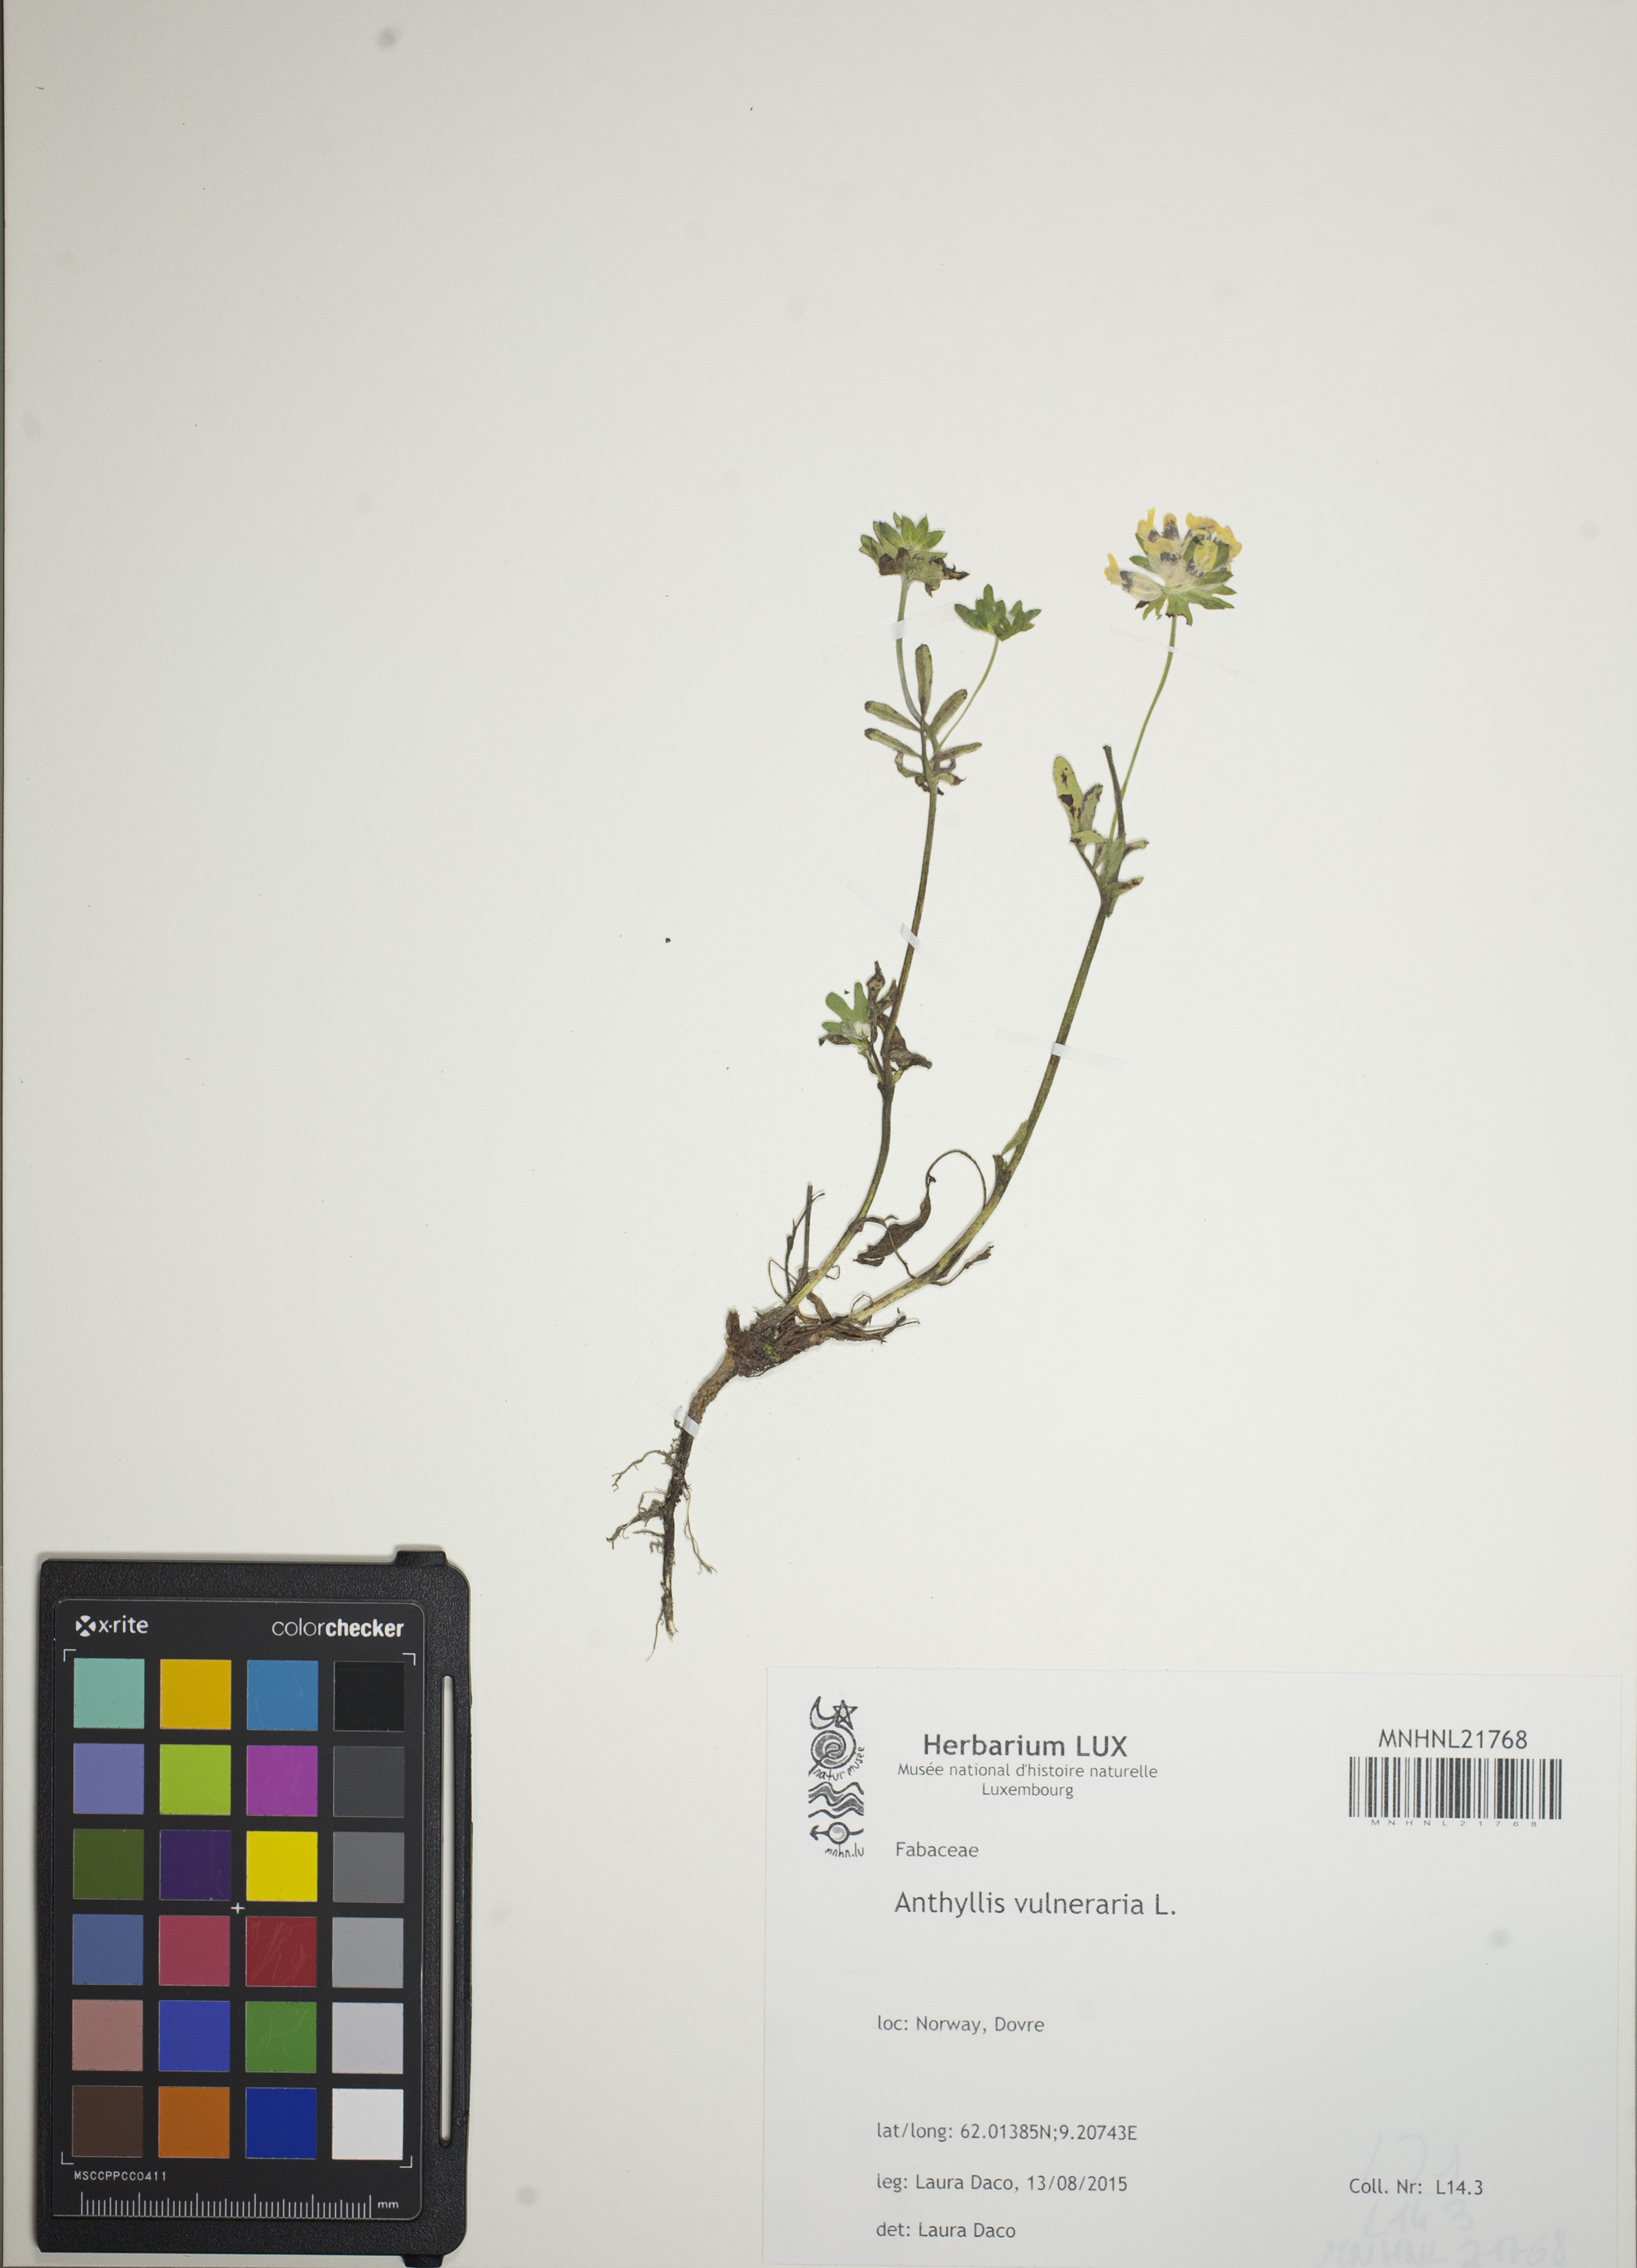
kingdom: Plantae
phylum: Tracheophyta
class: Magnoliopsida
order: Fabales
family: Fabaceae
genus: Anthyllis
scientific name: Anthyllis vulneraria
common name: Kidney vetch
